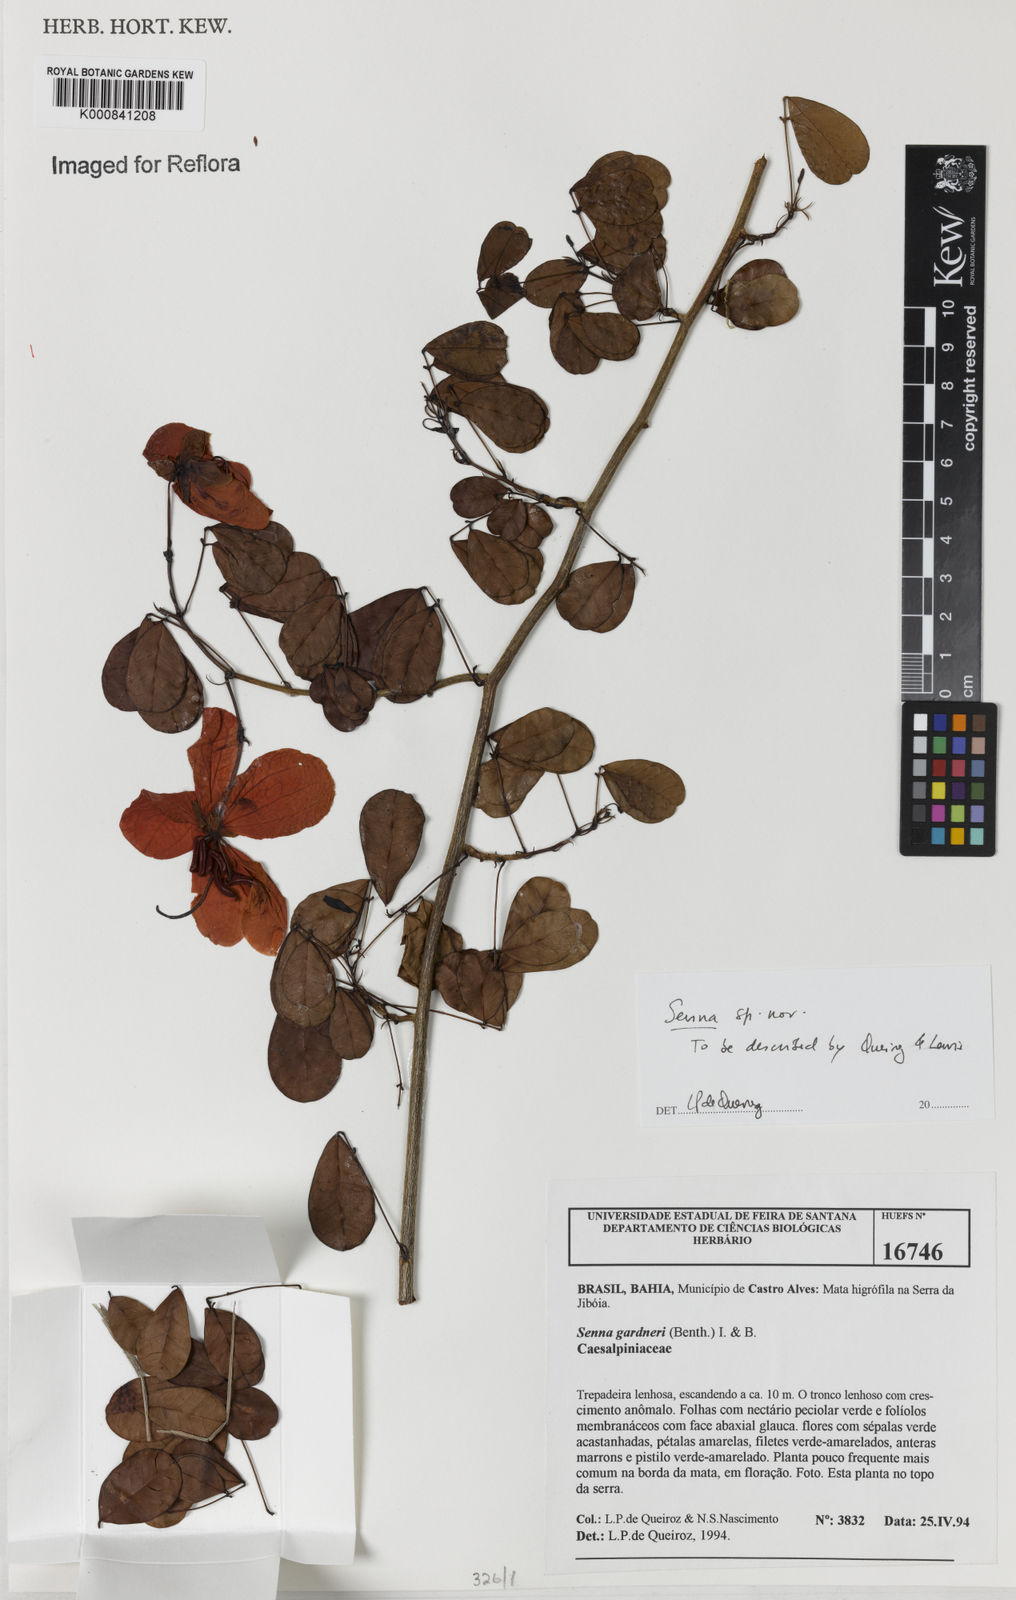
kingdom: Plantae
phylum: Tracheophyta
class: Magnoliopsida
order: Fabales
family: Fabaceae
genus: Senna
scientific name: Senna
